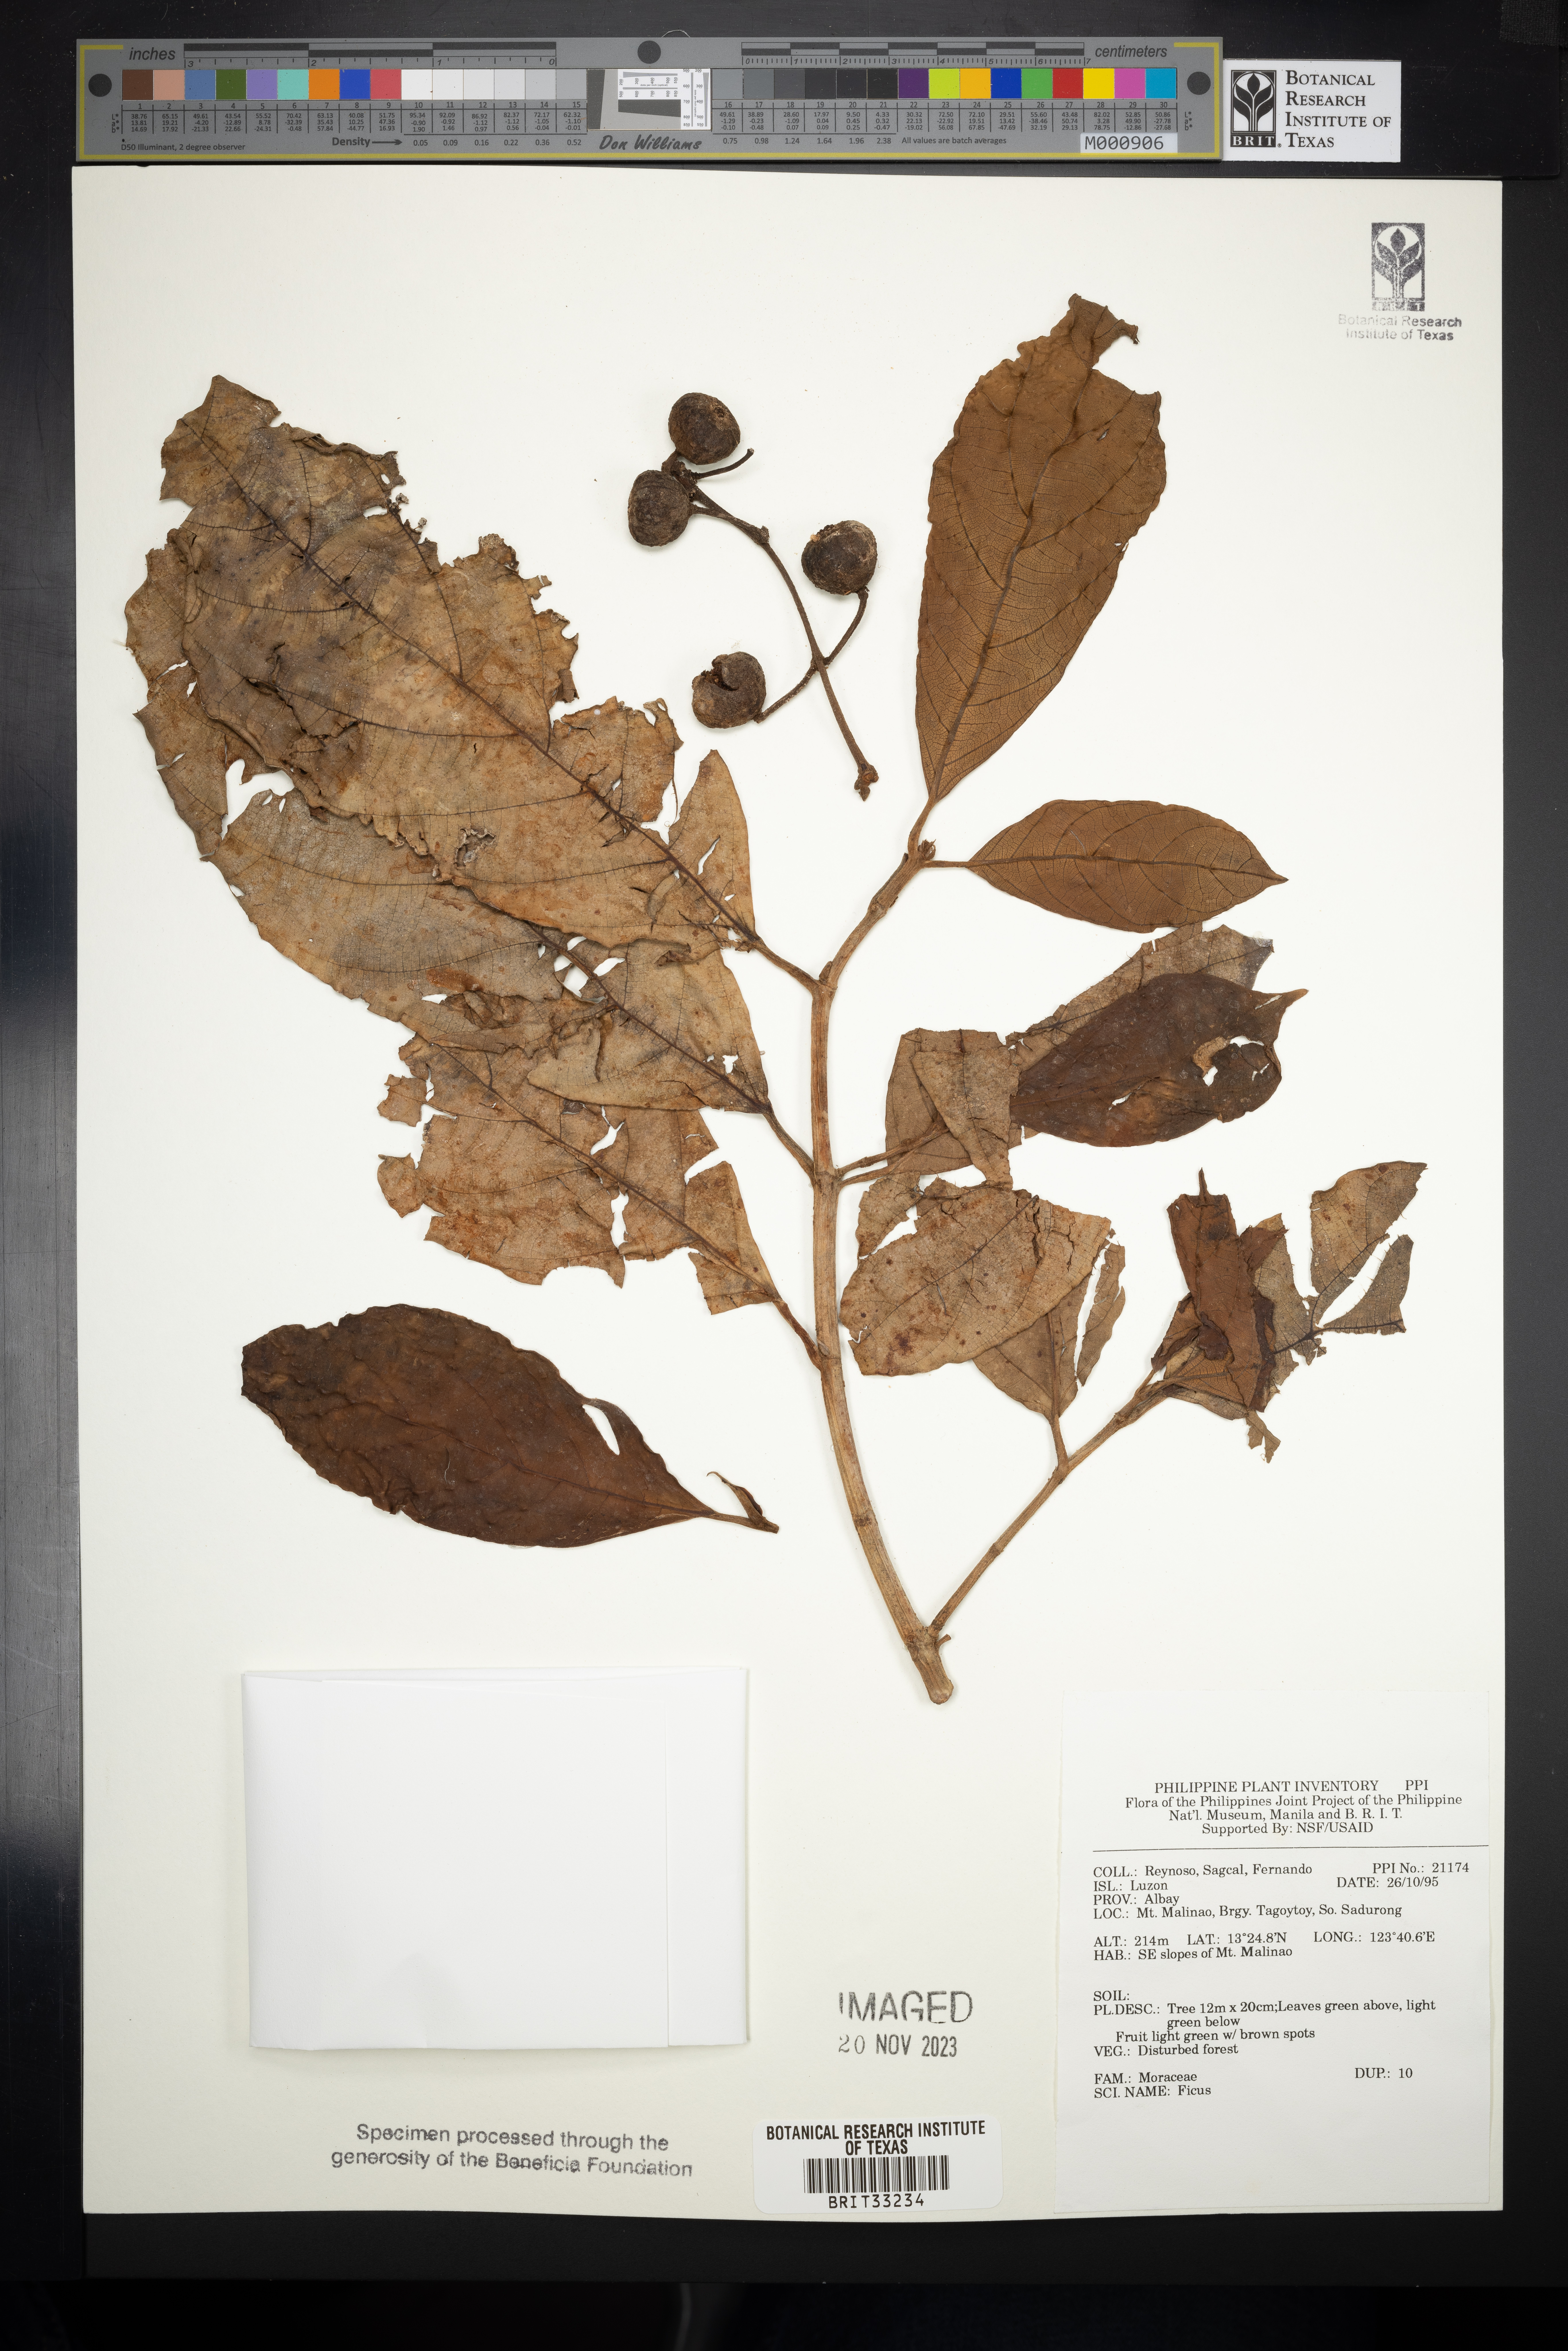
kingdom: Plantae
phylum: Tracheophyta
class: Magnoliopsida
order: Rosales
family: Moraceae
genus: Ficus
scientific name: Ficus
